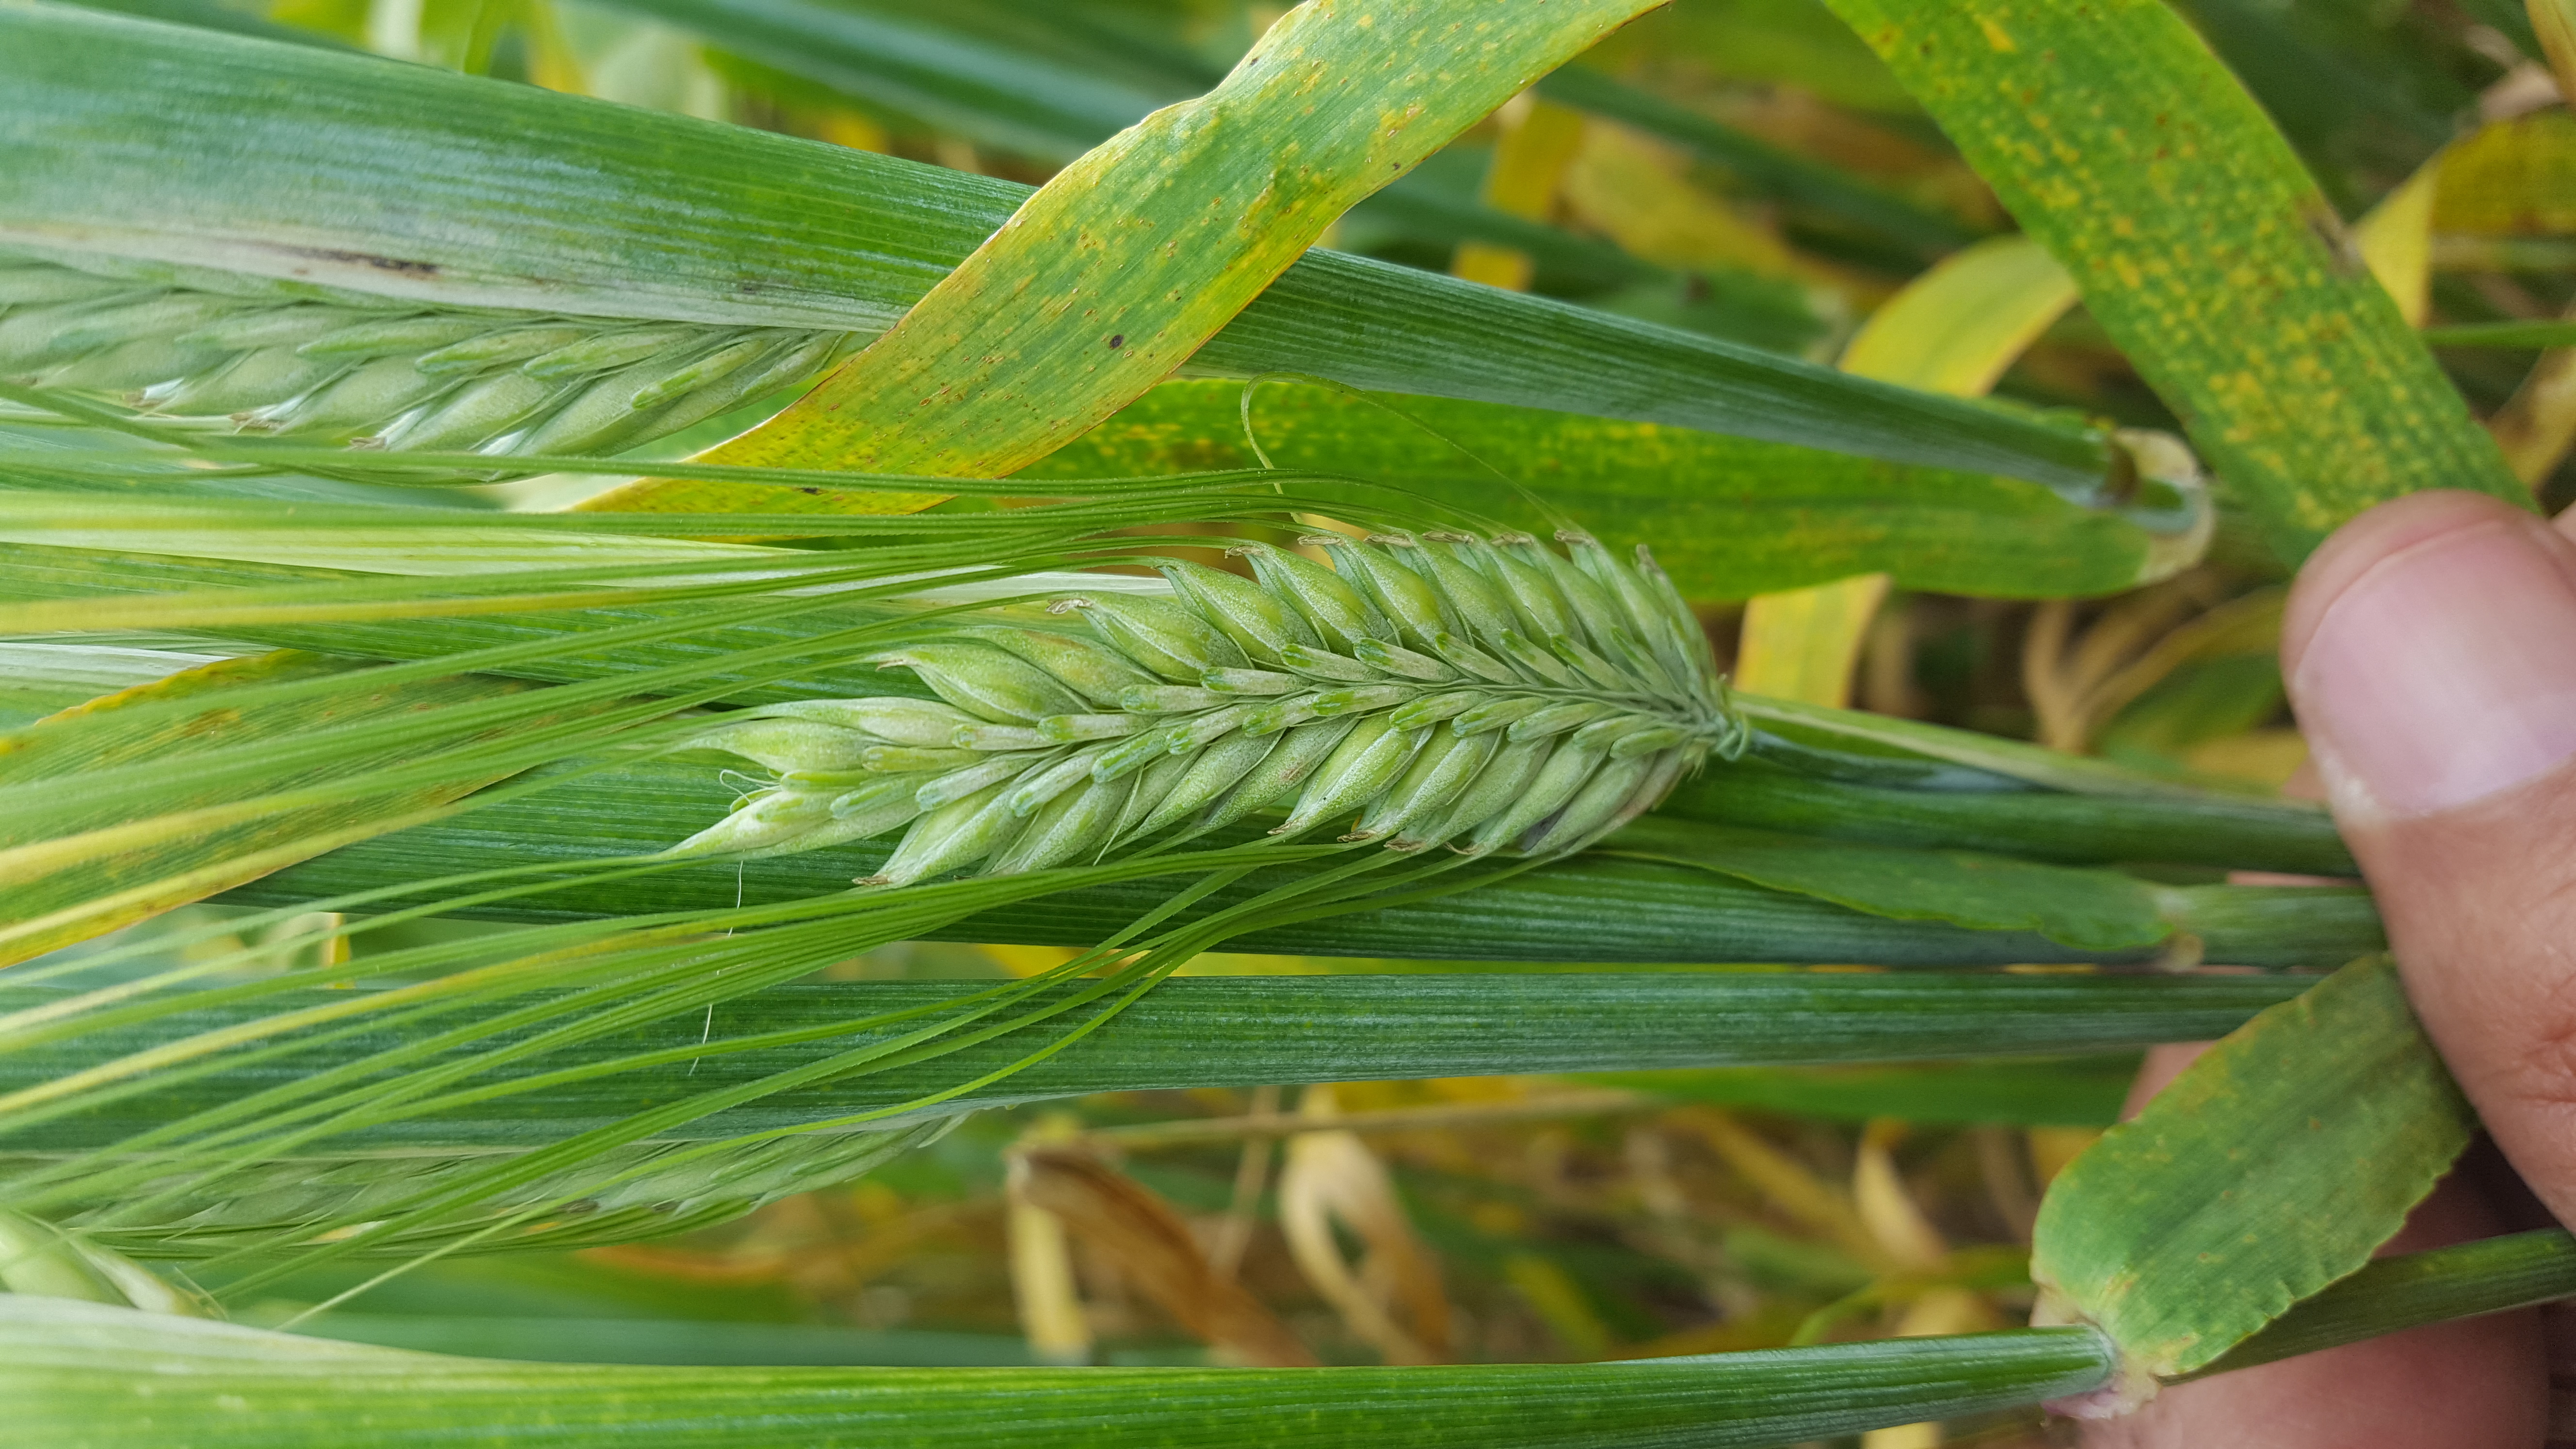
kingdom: Plantae
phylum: Tracheophyta
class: Liliopsida
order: Poales
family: Poaceae
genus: Hordeum
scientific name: Hordeum vulgare
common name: Common barley
